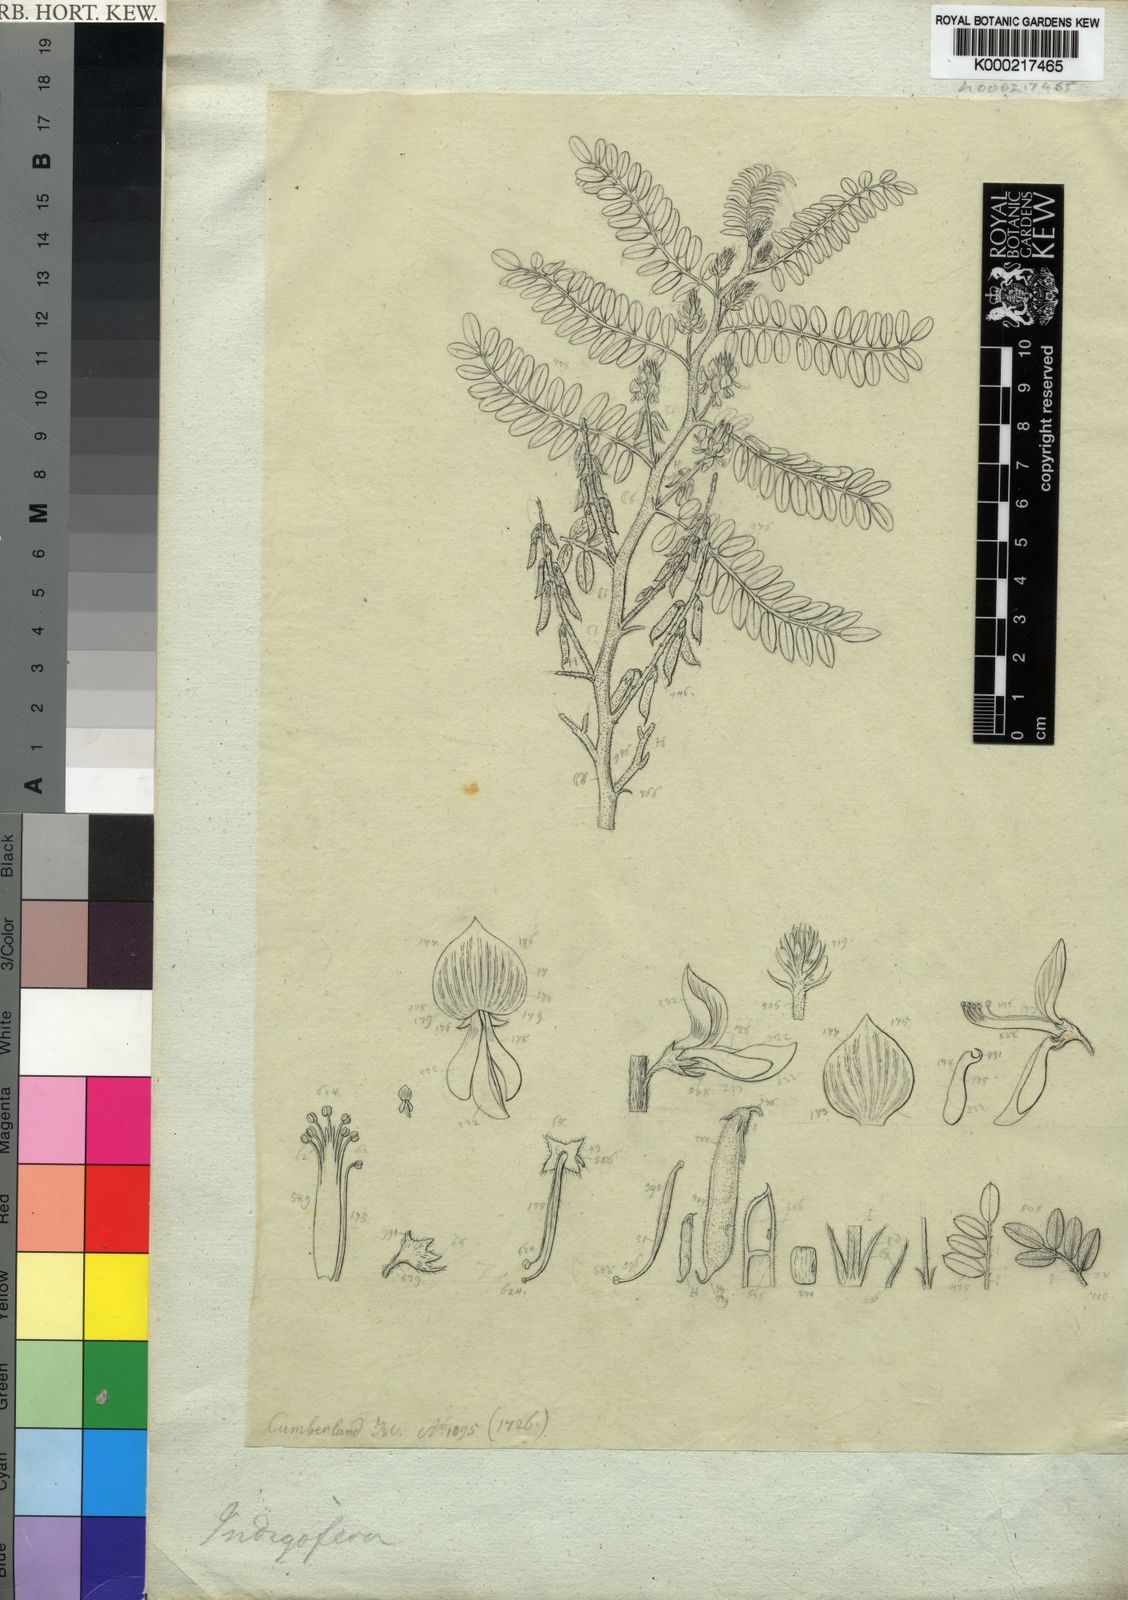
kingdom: Plantae
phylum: Tracheophyta
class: Magnoliopsida
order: Fabales
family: Fabaceae
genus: Indigofera
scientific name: Indigofera
